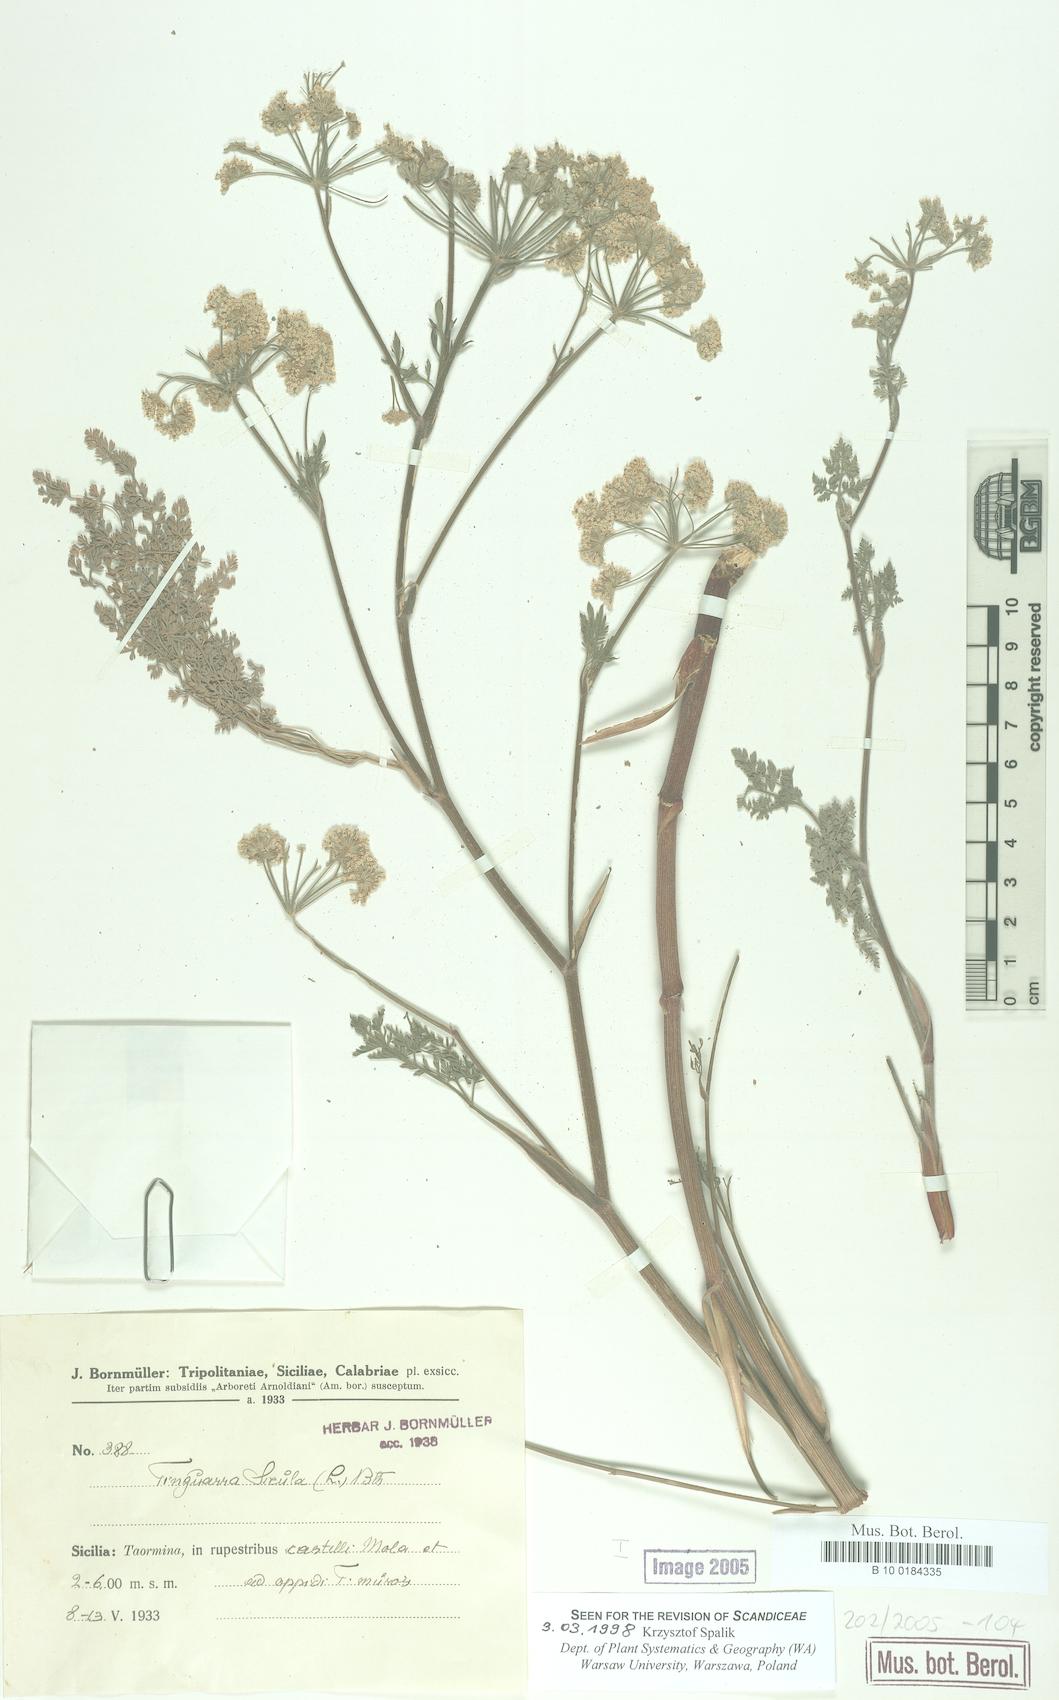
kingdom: Plantae
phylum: Tracheophyta
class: Magnoliopsida
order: Apiales
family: Apiaceae
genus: Athamanta
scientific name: Athamanta sicula
